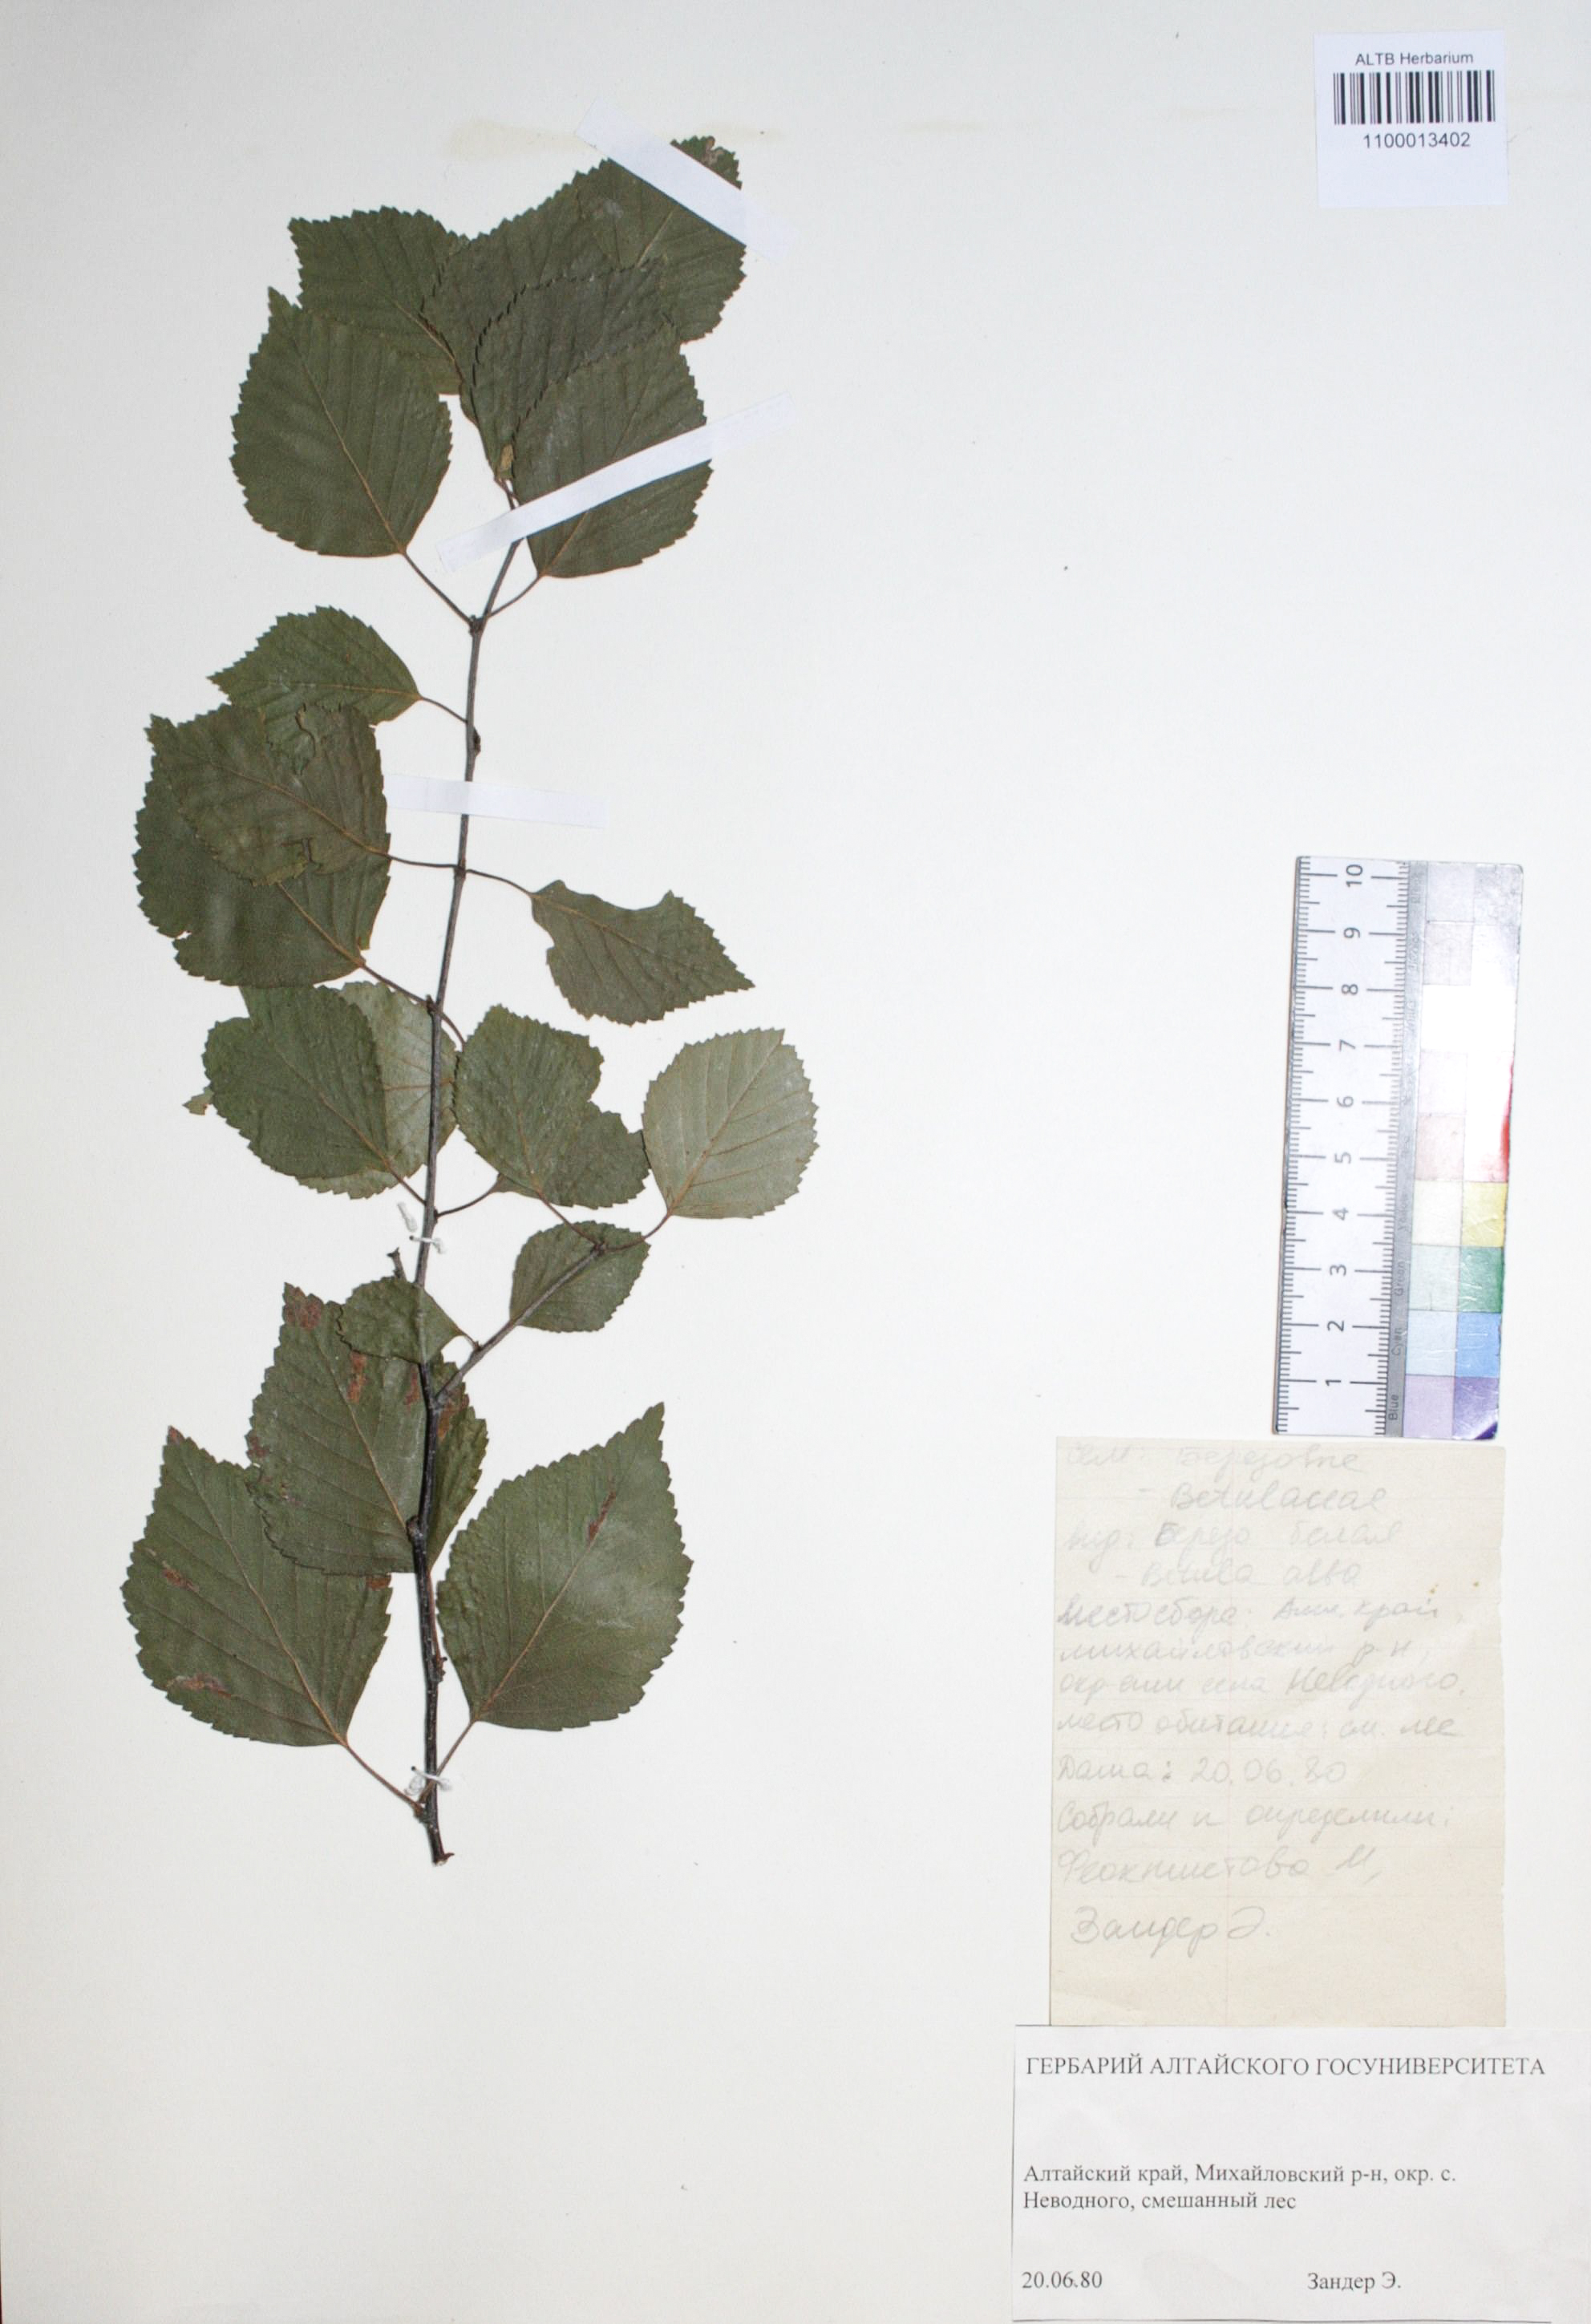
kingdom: Plantae
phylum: Tracheophyta
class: Magnoliopsida
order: Fagales
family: Betulaceae
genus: Betula
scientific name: Betula pubescens
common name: Downy birch
